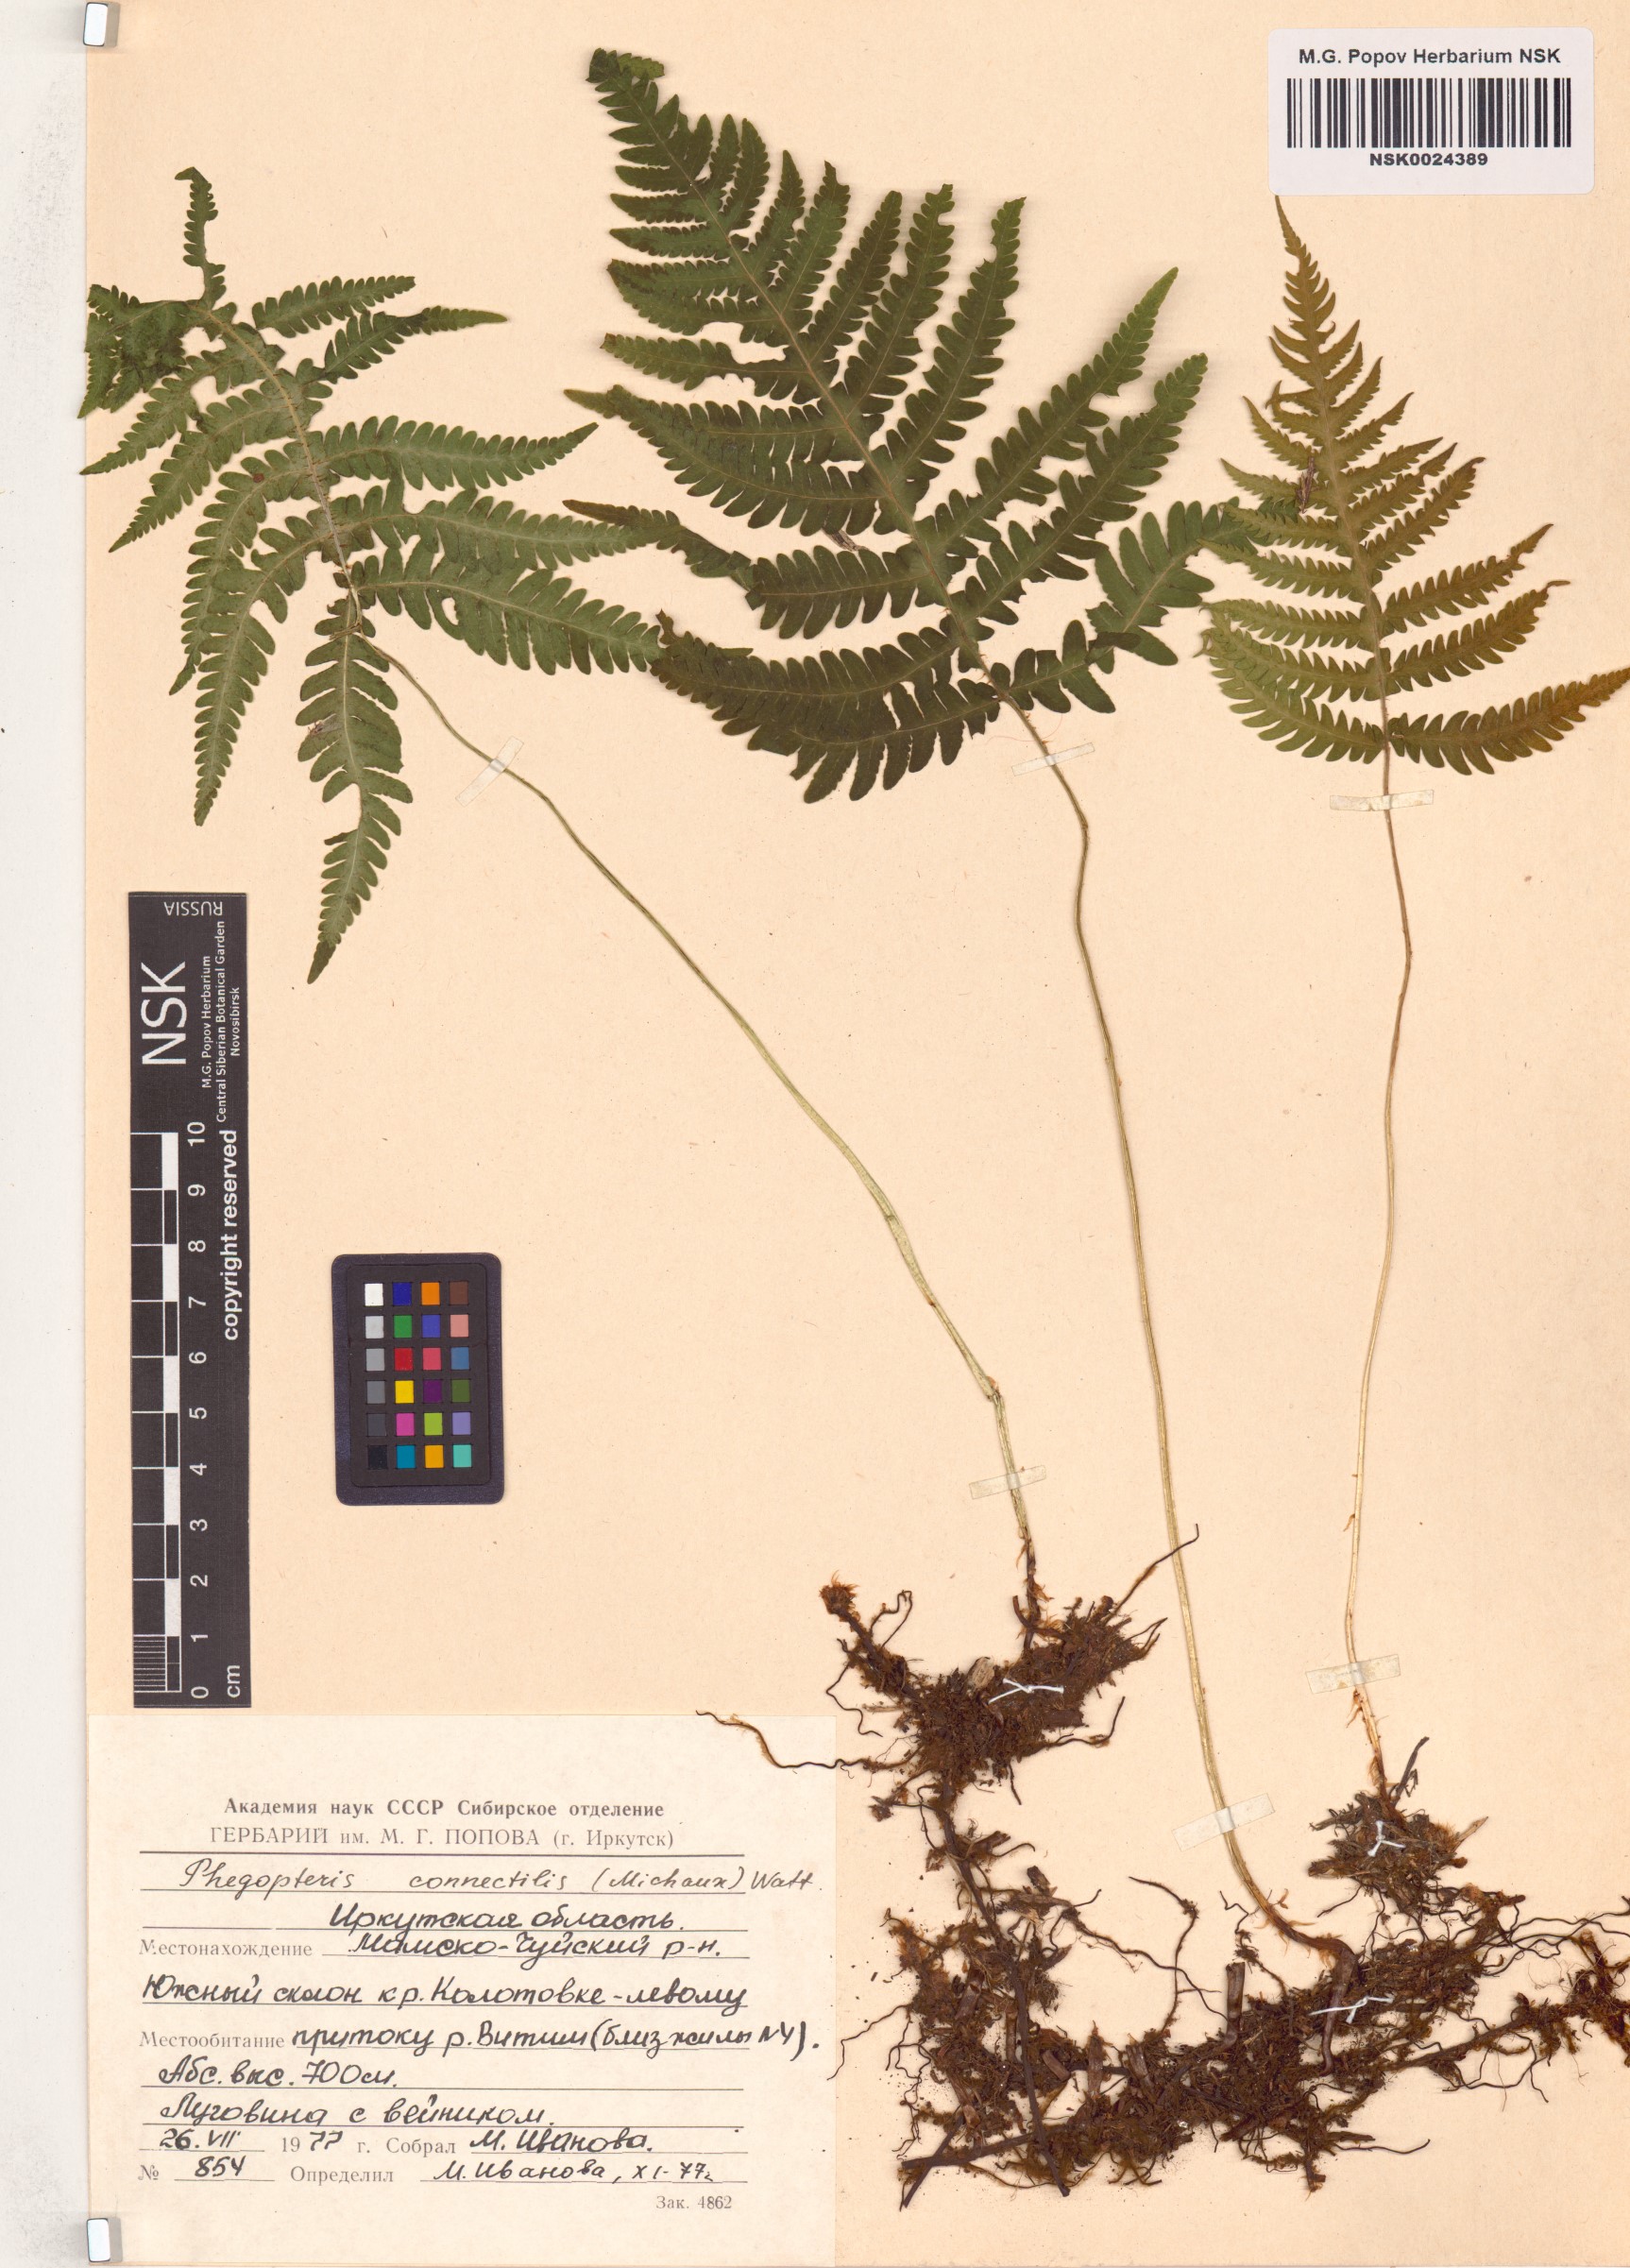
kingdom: Plantae
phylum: Tracheophyta
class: Polypodiopsida
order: Polypodiales
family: Thelypteridaceae
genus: Phegopteris
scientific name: Phegopteris connectilis
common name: Beech fern
